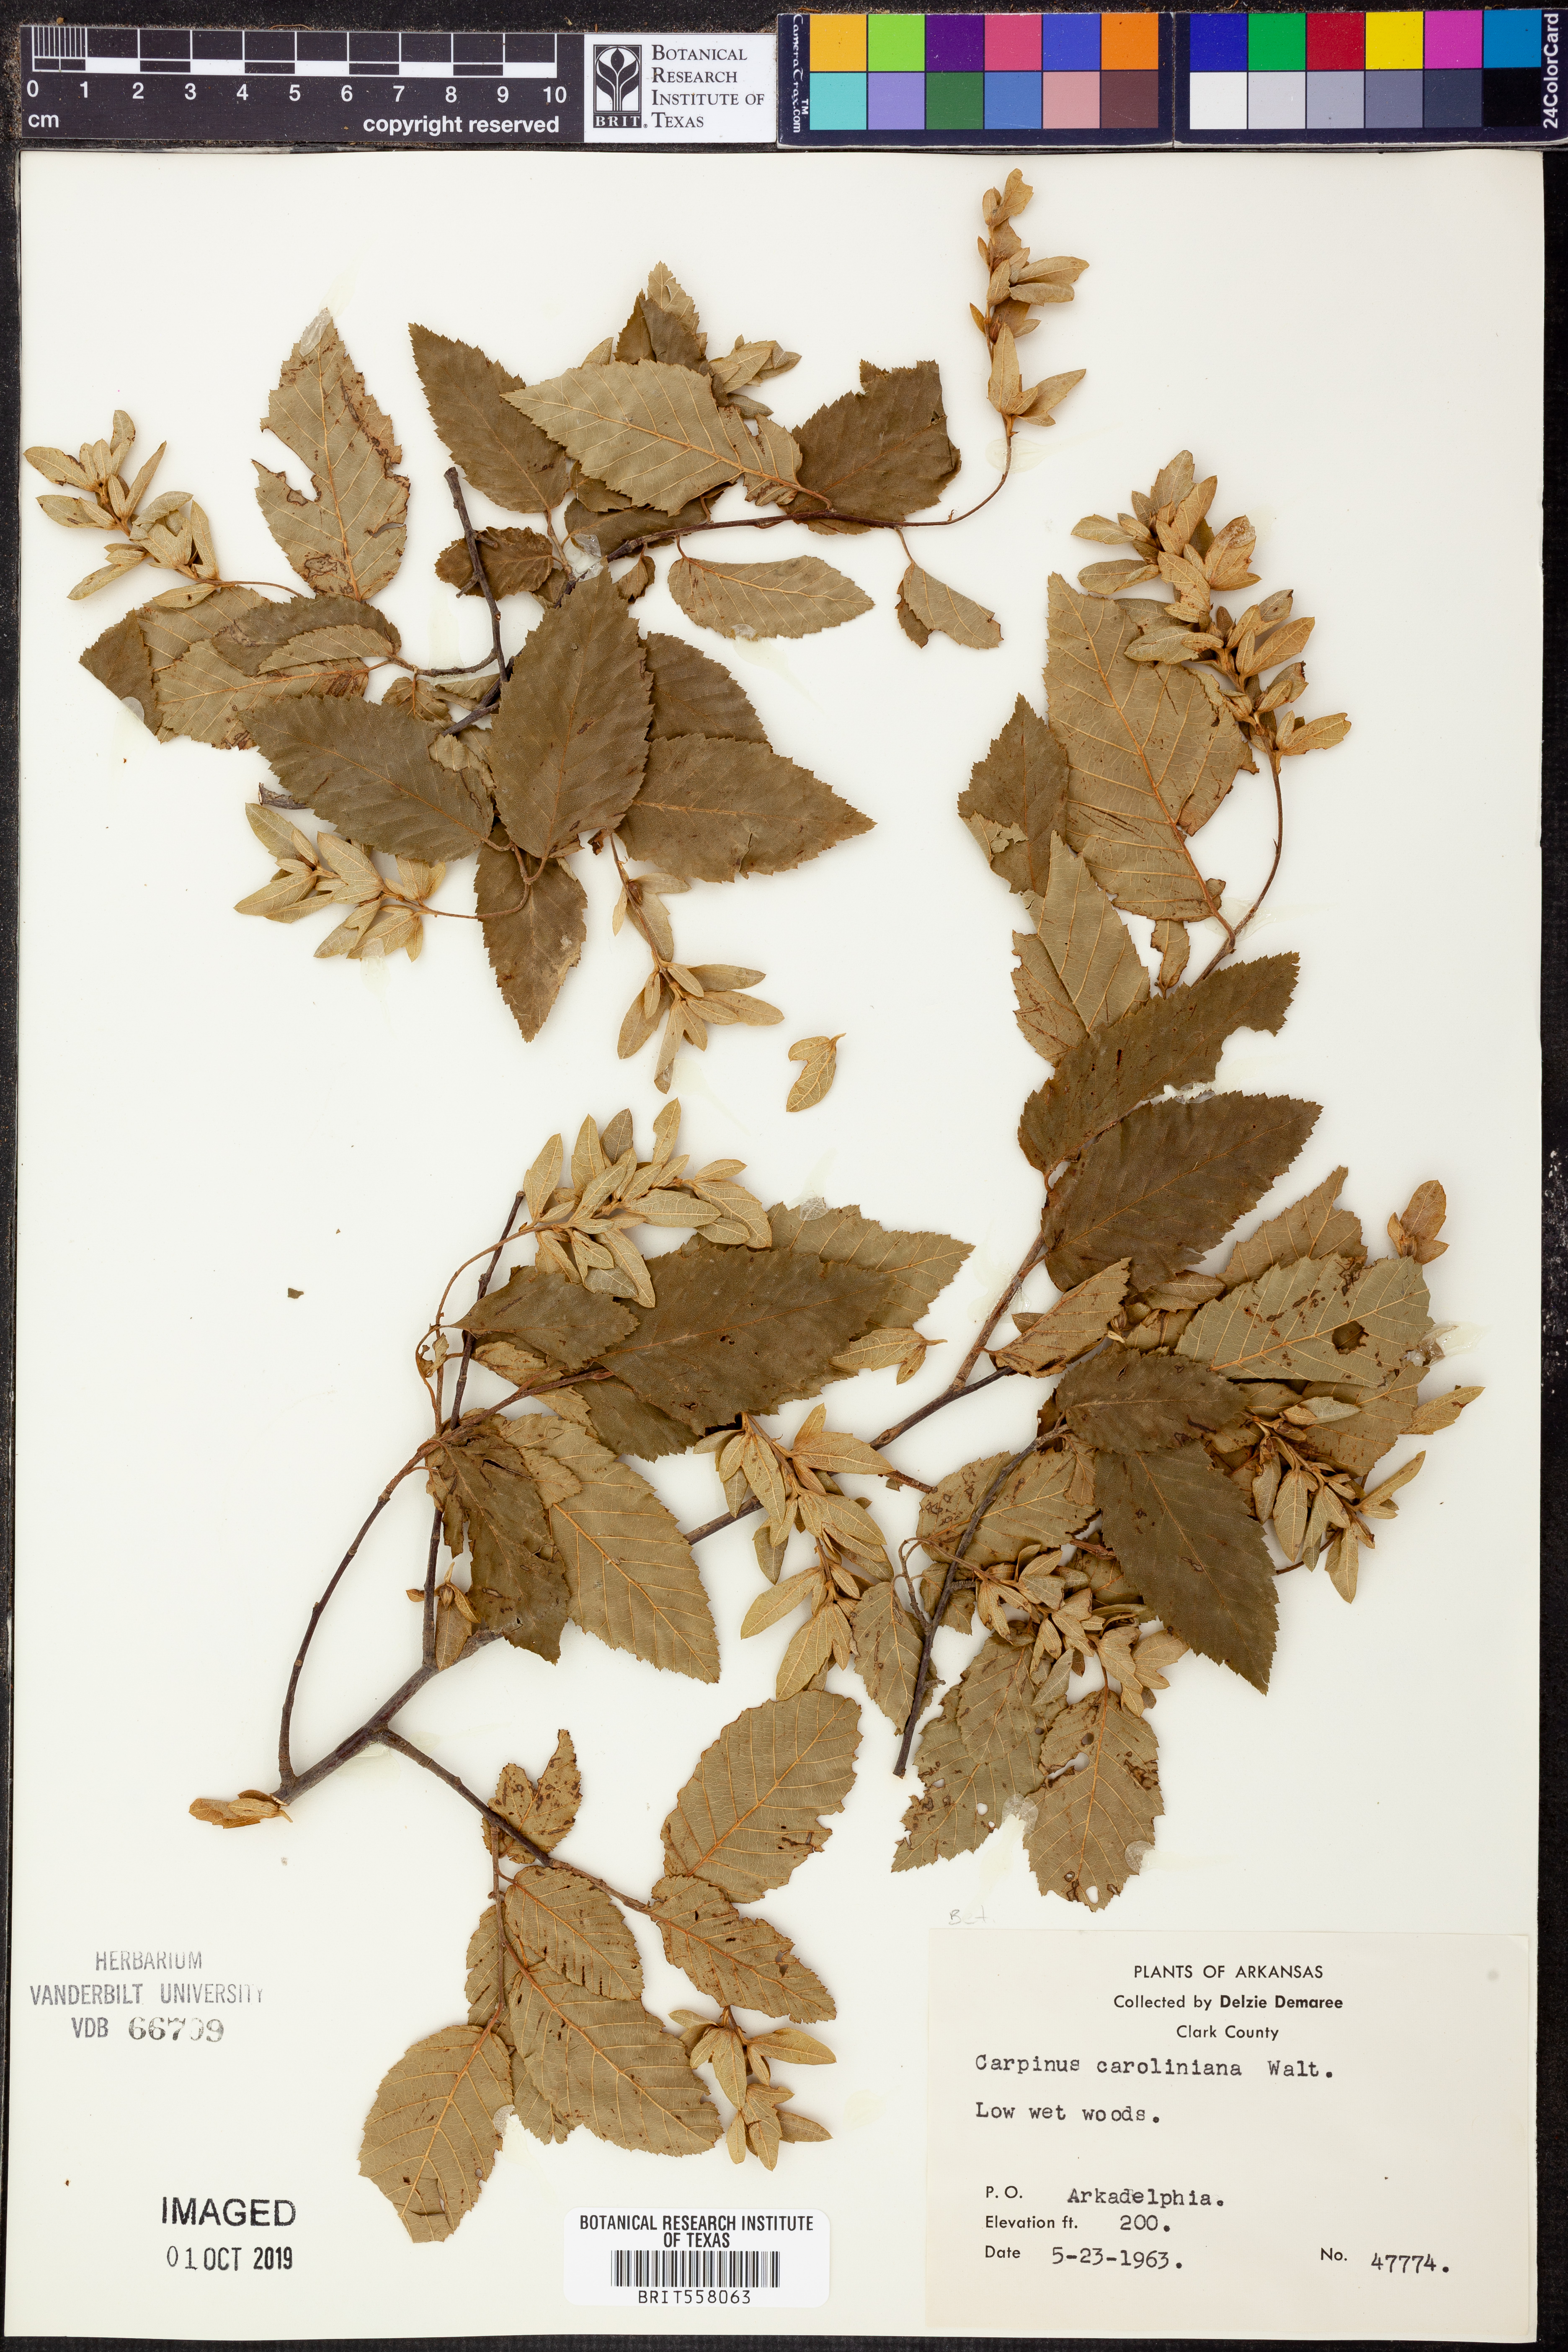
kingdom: Plantae
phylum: Tracheophyta
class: Magnoliopsida
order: Fagales
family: Betulaceae
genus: Carpinus
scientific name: Carpinus caroliniana
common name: American hornbeam
